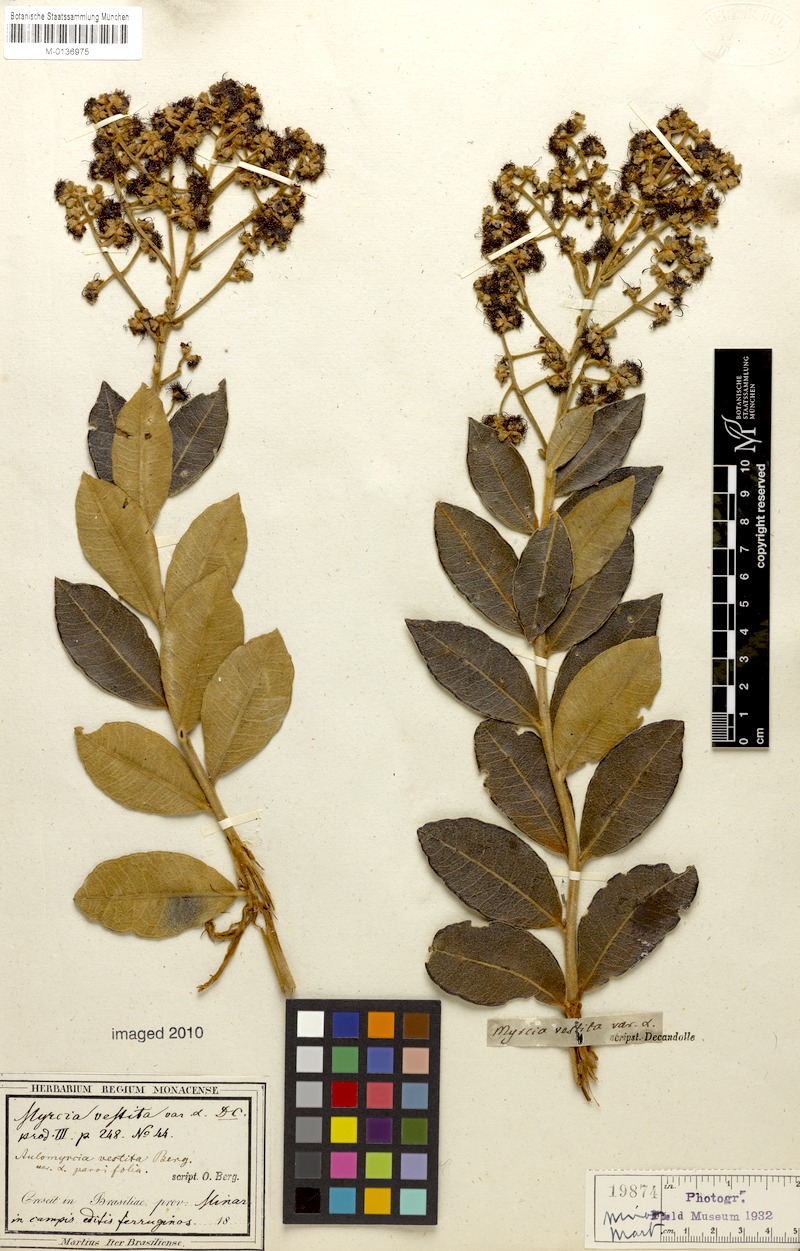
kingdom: Plantae
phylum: Tracheophyta
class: Magnoliopsida
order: Myrtales
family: Myrtaceae
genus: Myrcia
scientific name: Myrcia vestita
